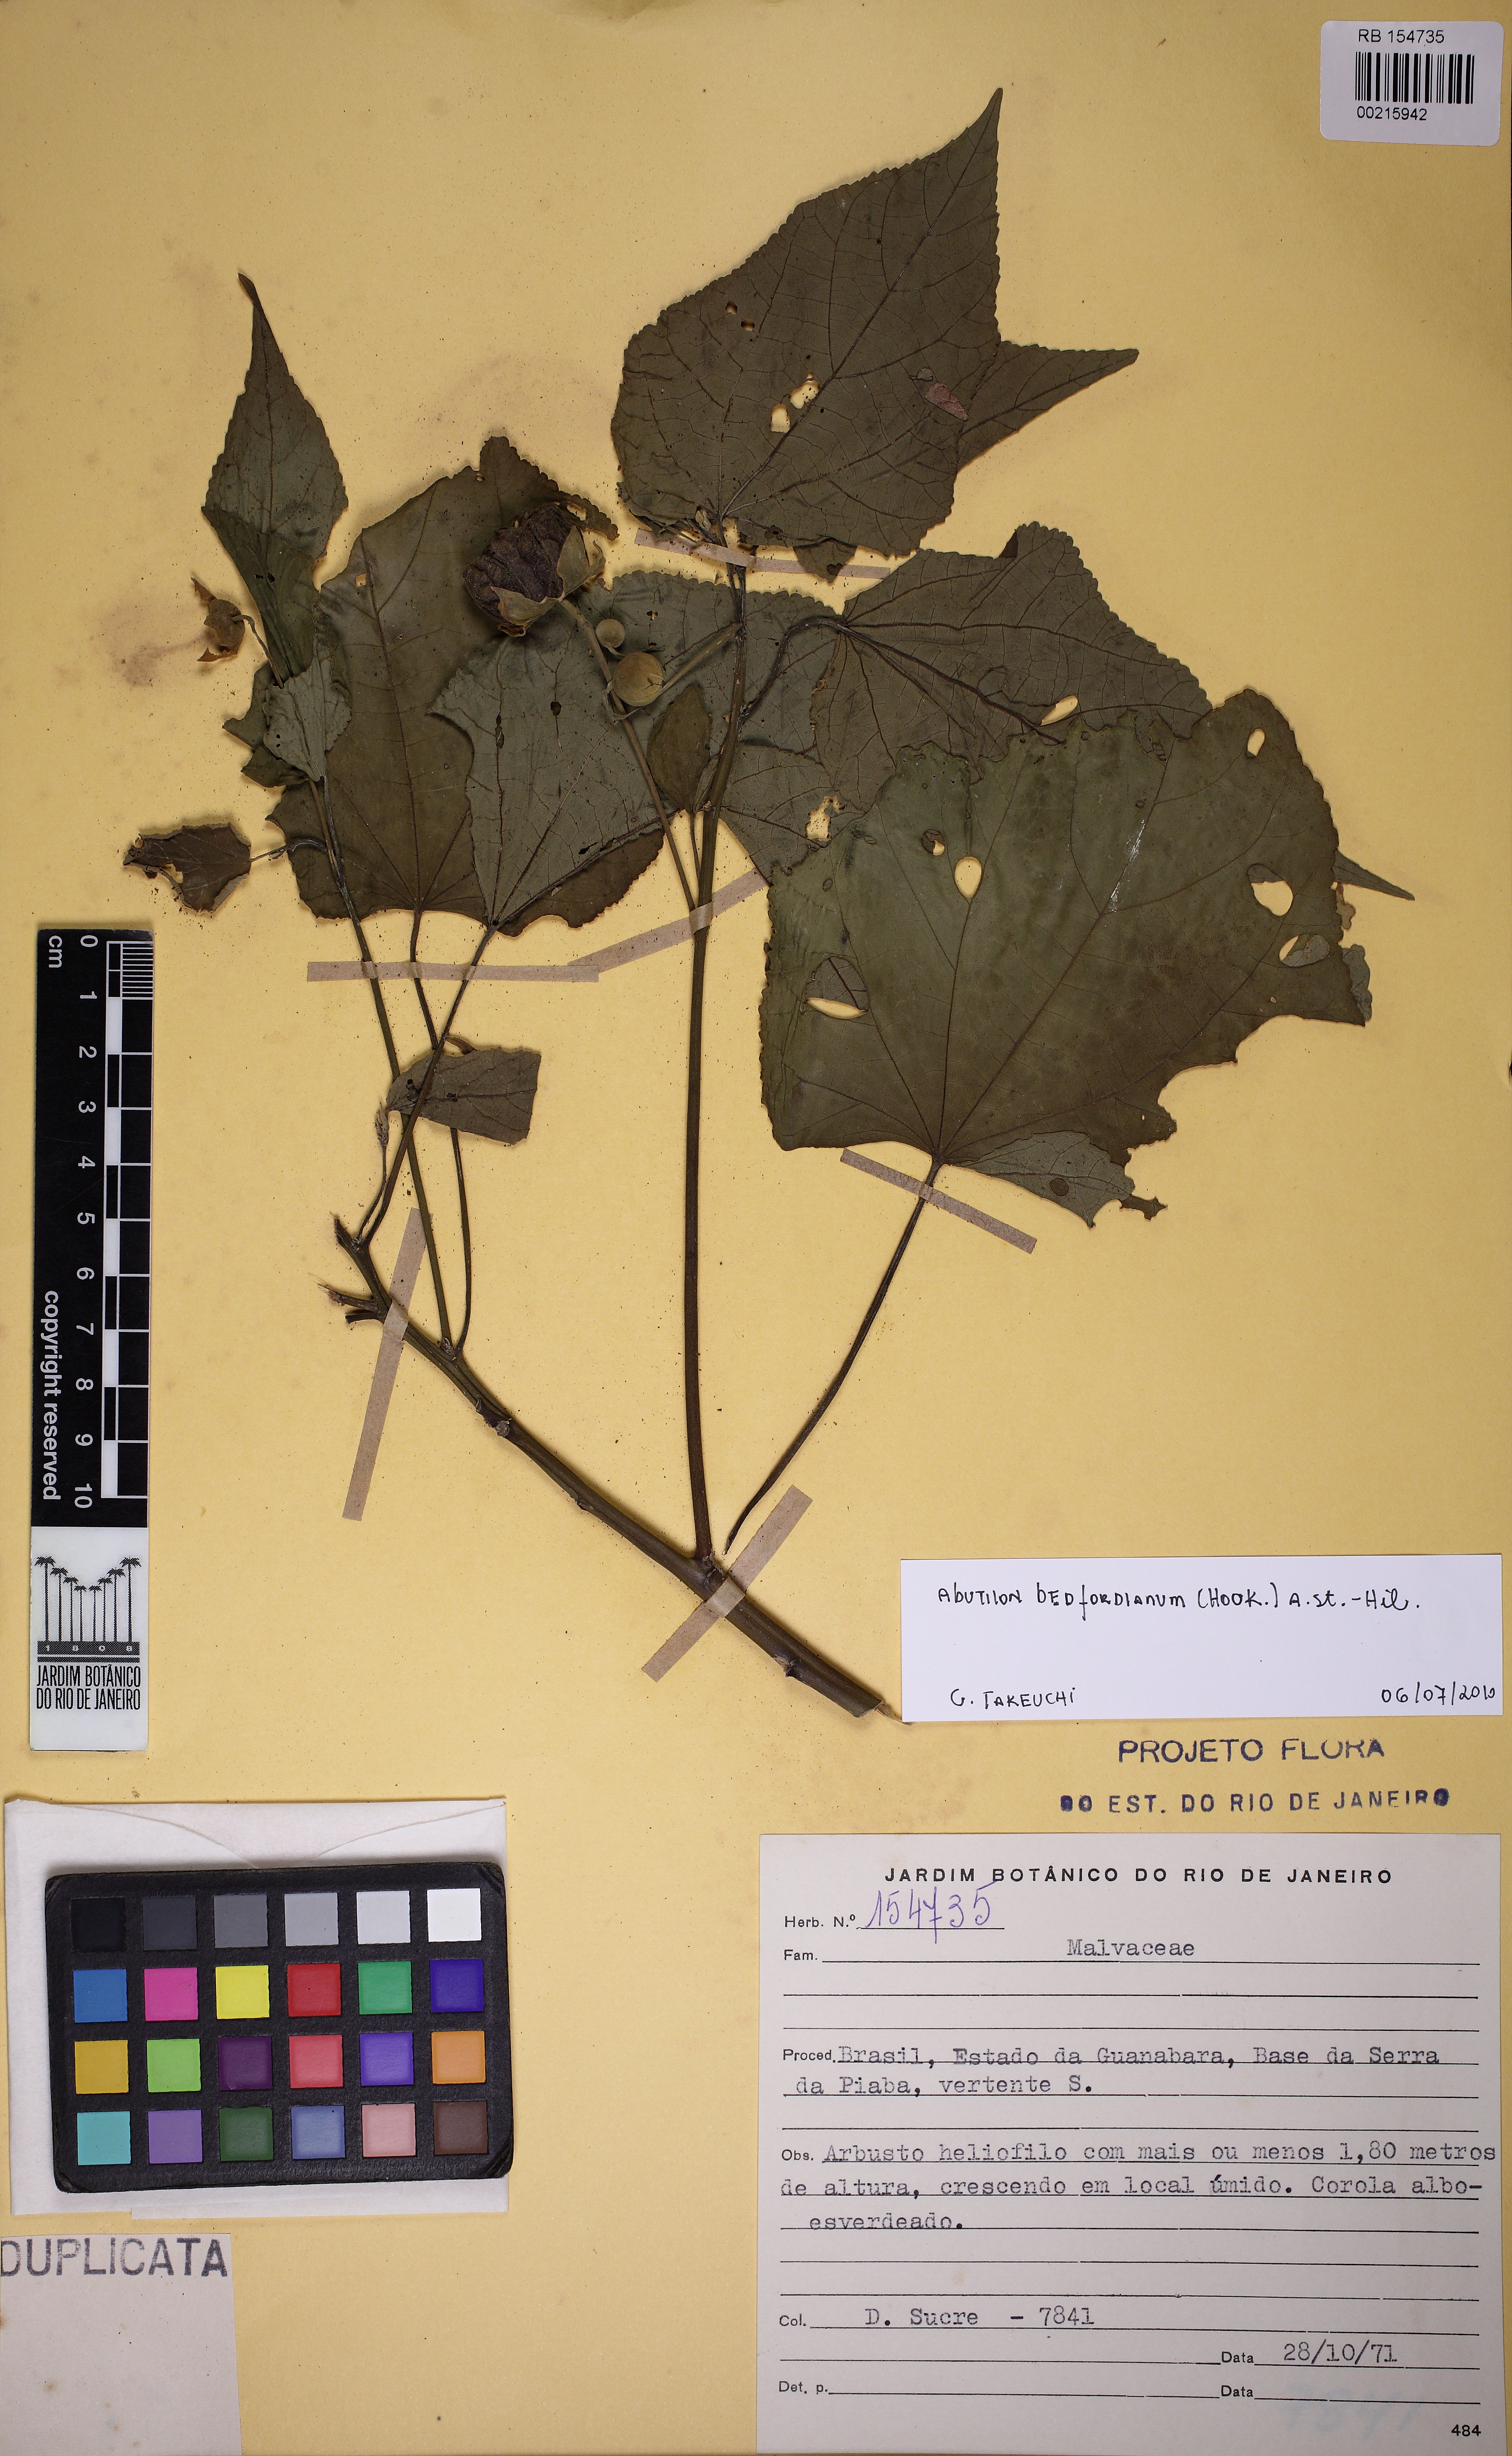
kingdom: Plantae
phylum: Tracheophyta
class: Magnoliopsida
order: Malvales
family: Malvaceae
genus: Callianthe
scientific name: Callianthe bedfordiana
